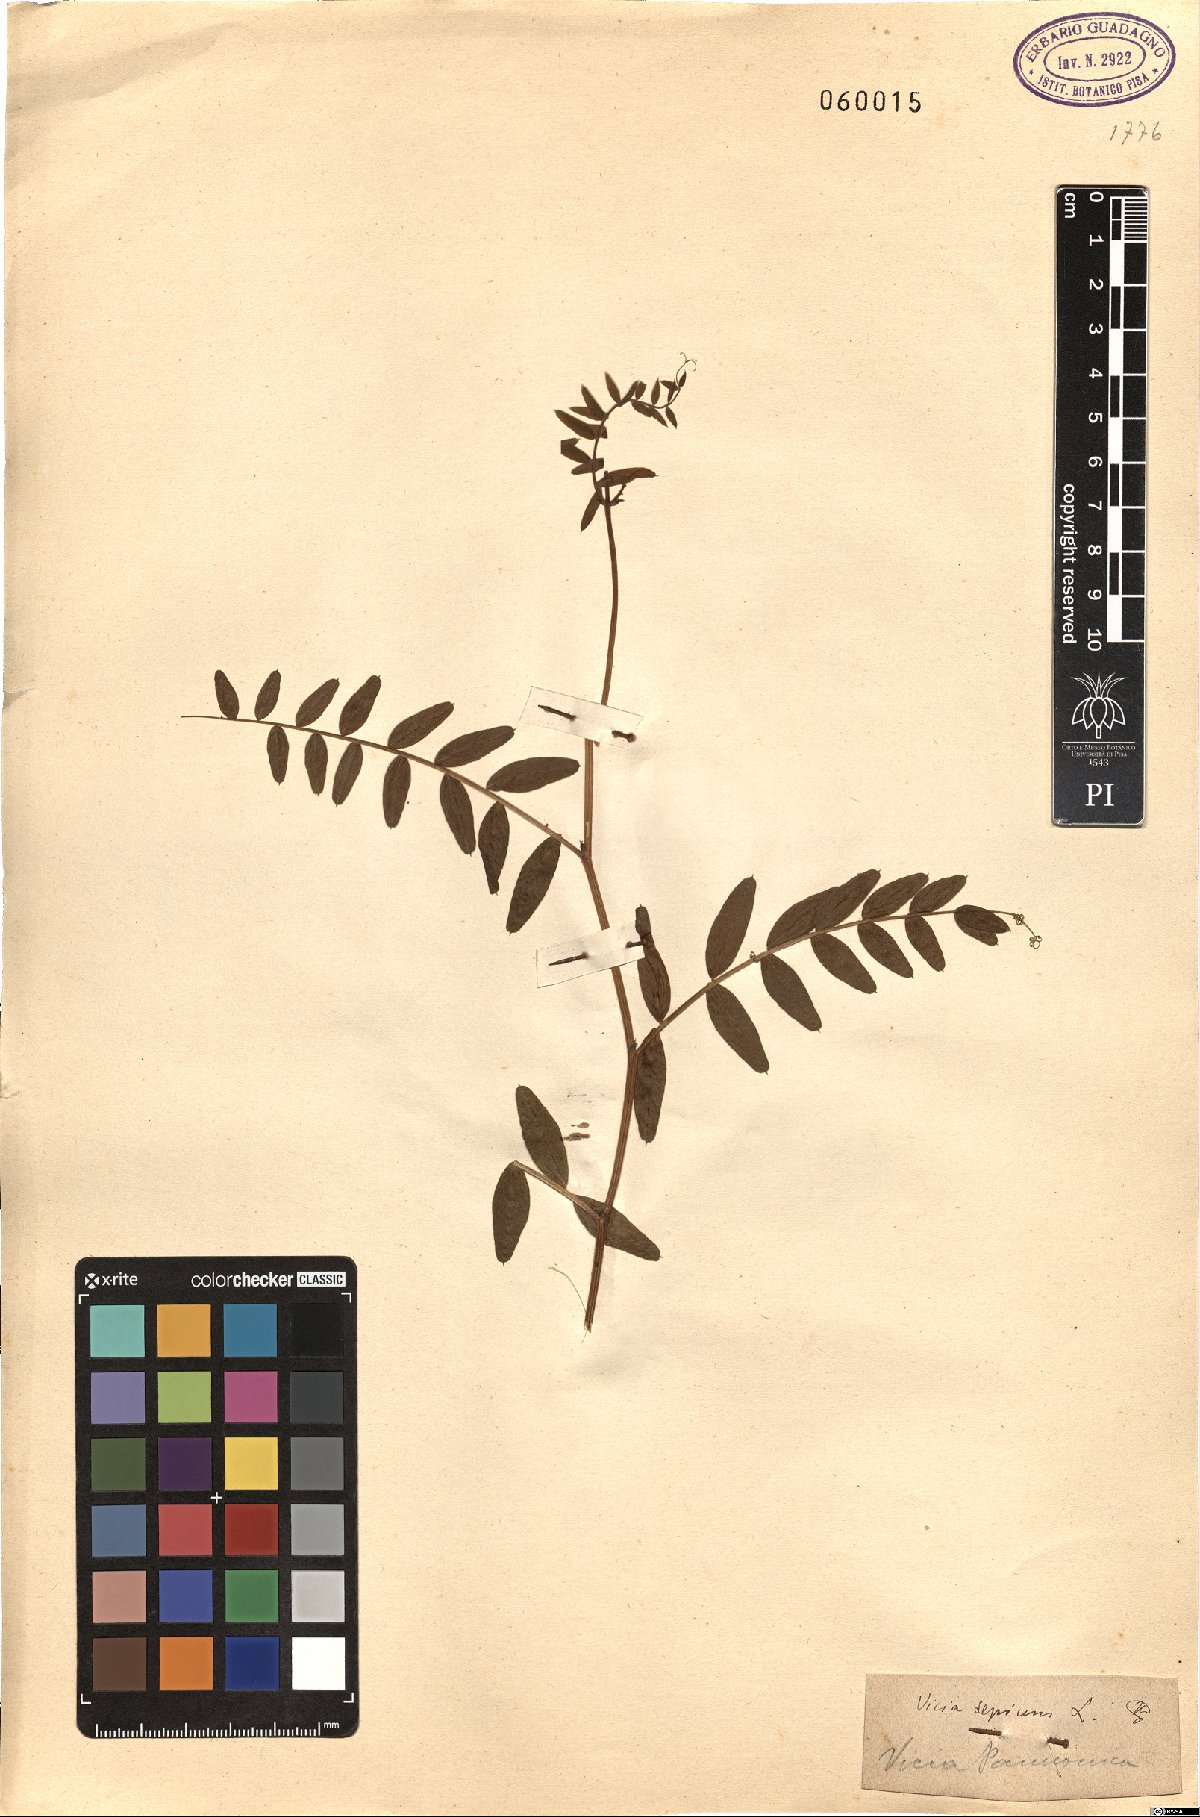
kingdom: Plantae
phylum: Tracheophyta
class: Magnoliopsida
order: Fabales
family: Fabaceae
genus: Vicia
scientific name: Vicia sepium
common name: Bush vetch
